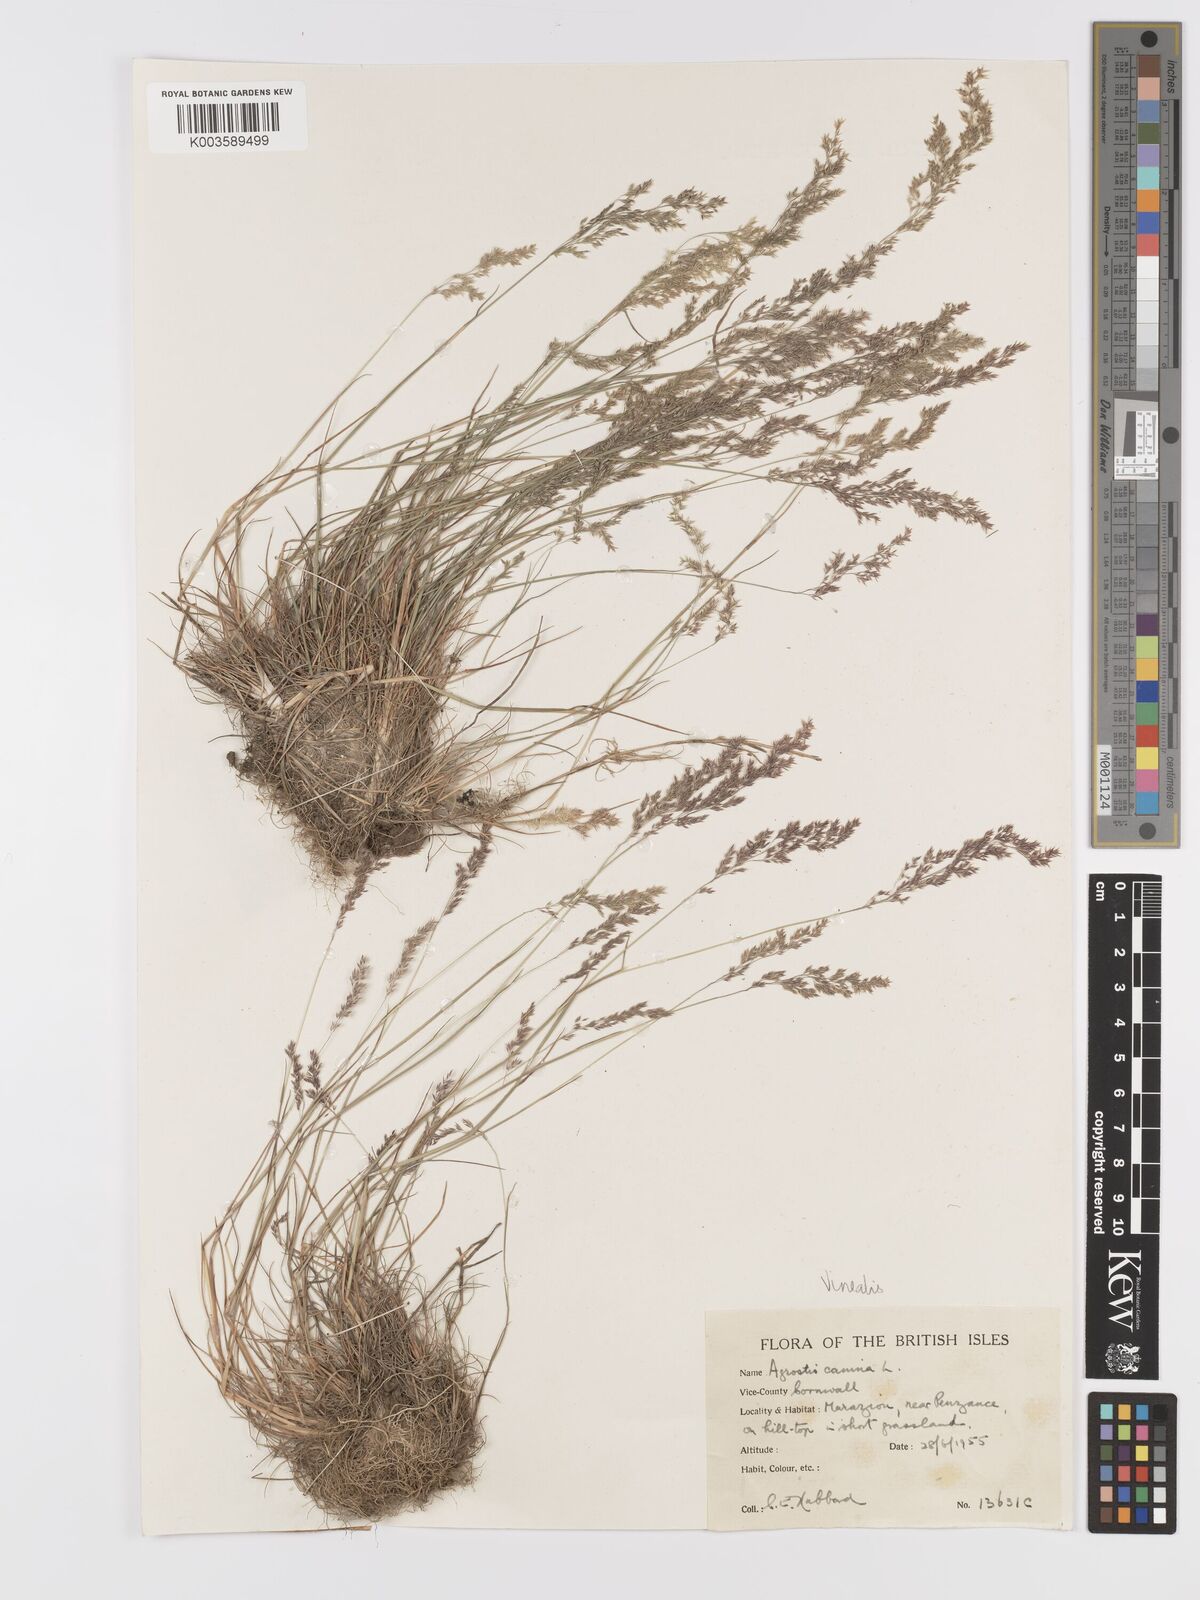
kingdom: Plantae
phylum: Tracheophyta
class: Liliopsida
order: Poales
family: Poaceae
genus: Agrostis
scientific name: Agrostis
